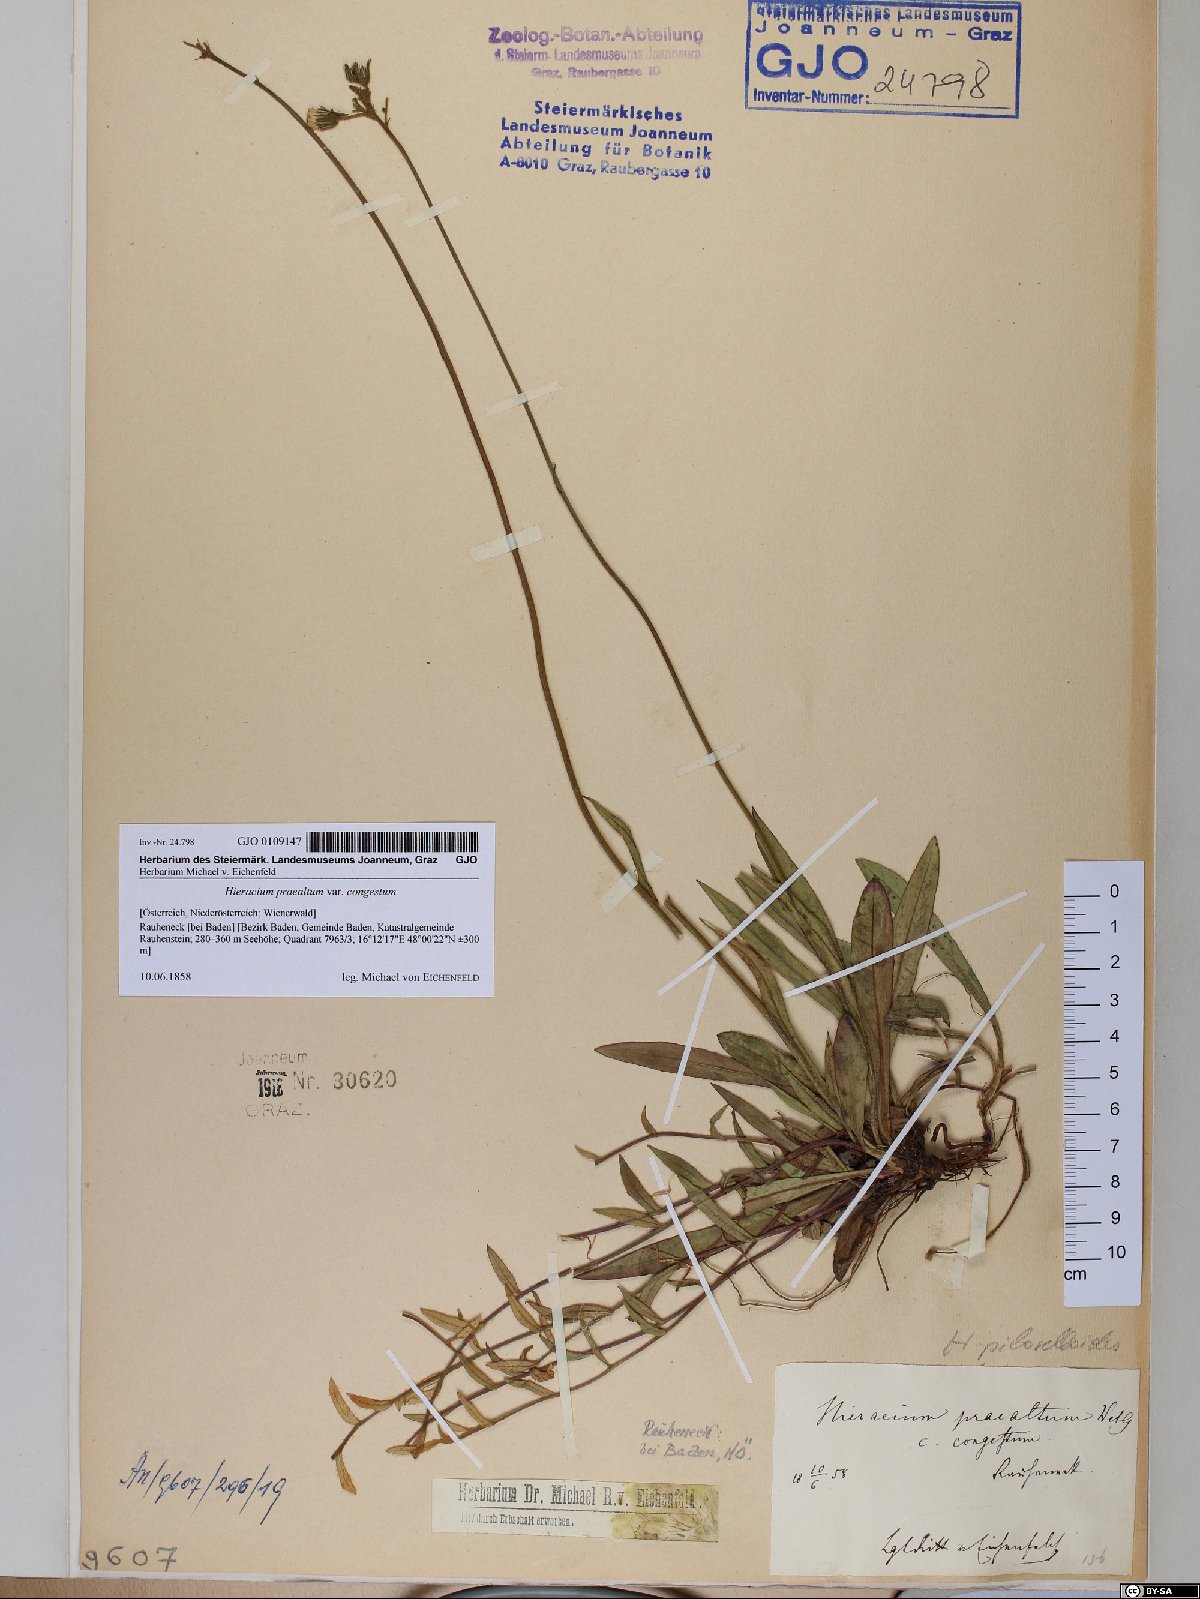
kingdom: Plantae
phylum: Tracheophyta
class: Magnoliopsida
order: Asterales
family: Asteraceae
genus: Hieracium
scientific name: Hieracium praealtum
